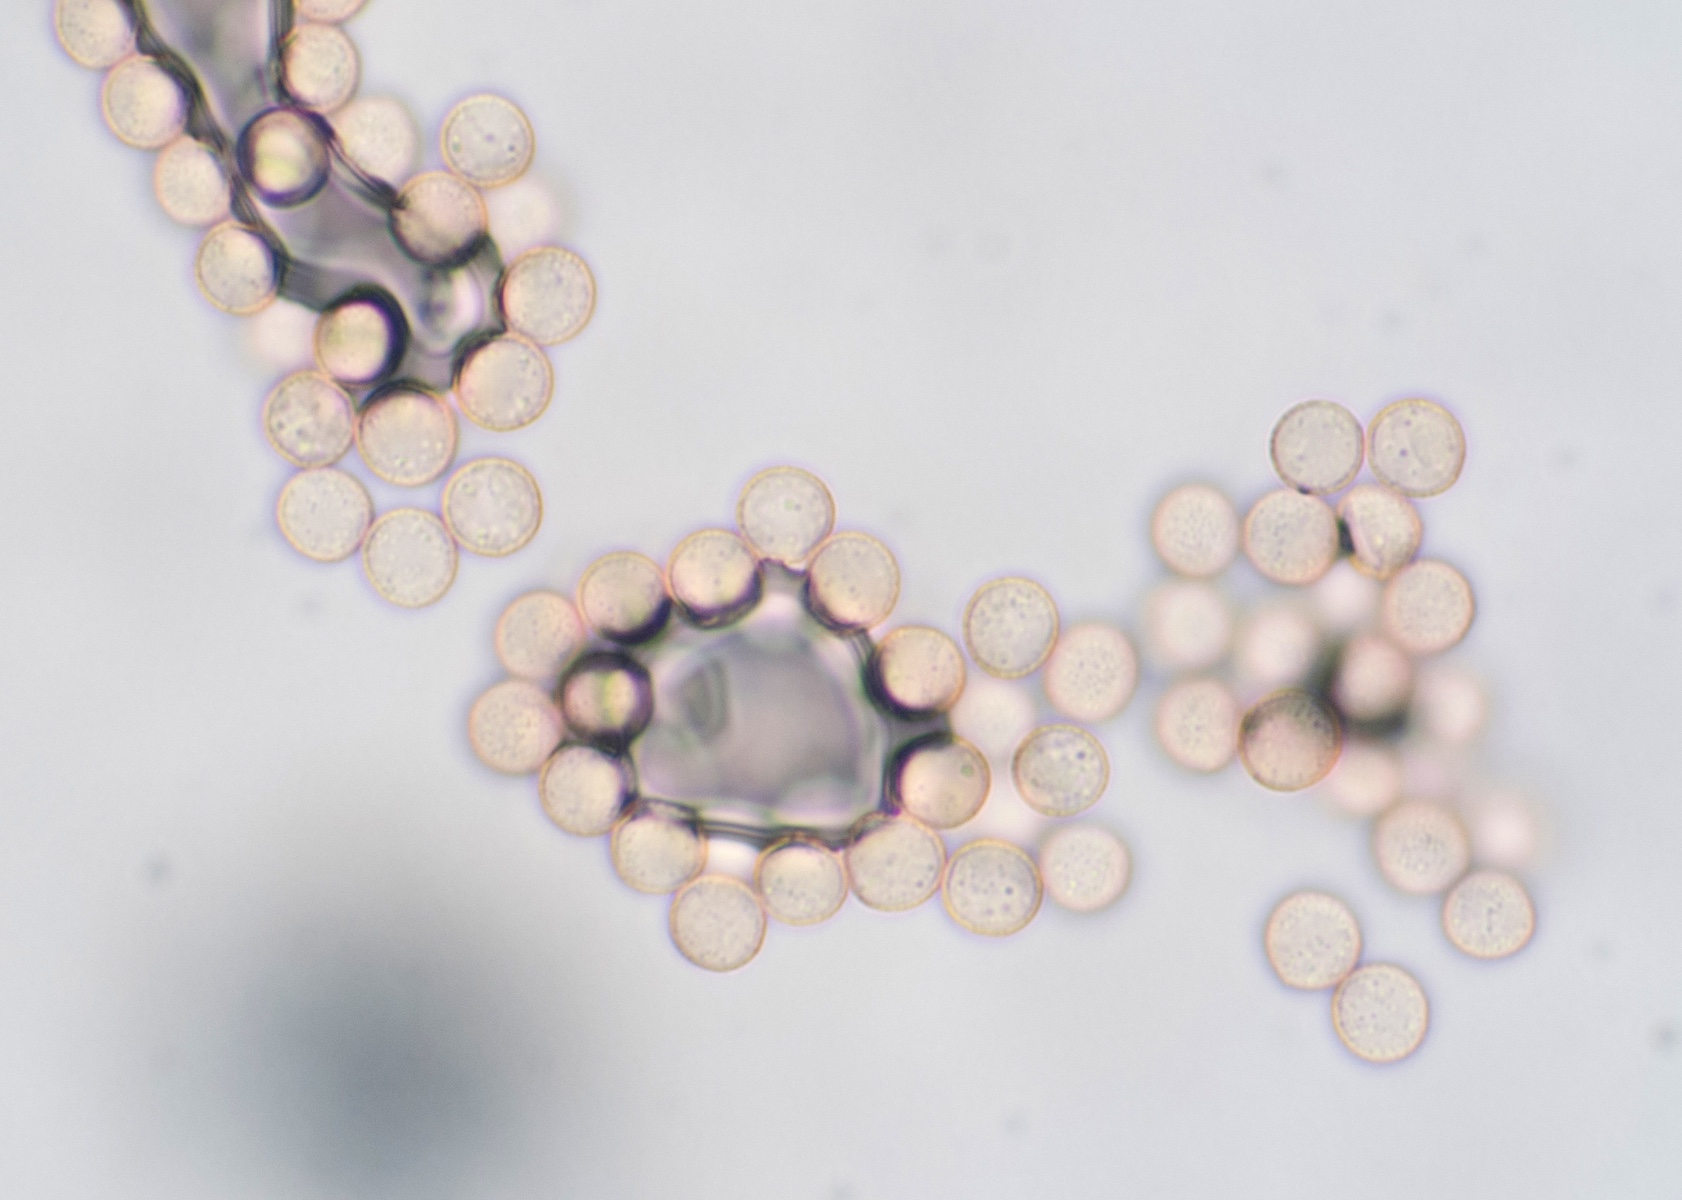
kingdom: Protozoa
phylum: Mycetozoa
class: Myxomycetes
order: Stemonitidales
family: Stemonitidaceae
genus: Stemonitis
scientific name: Stemonitis
